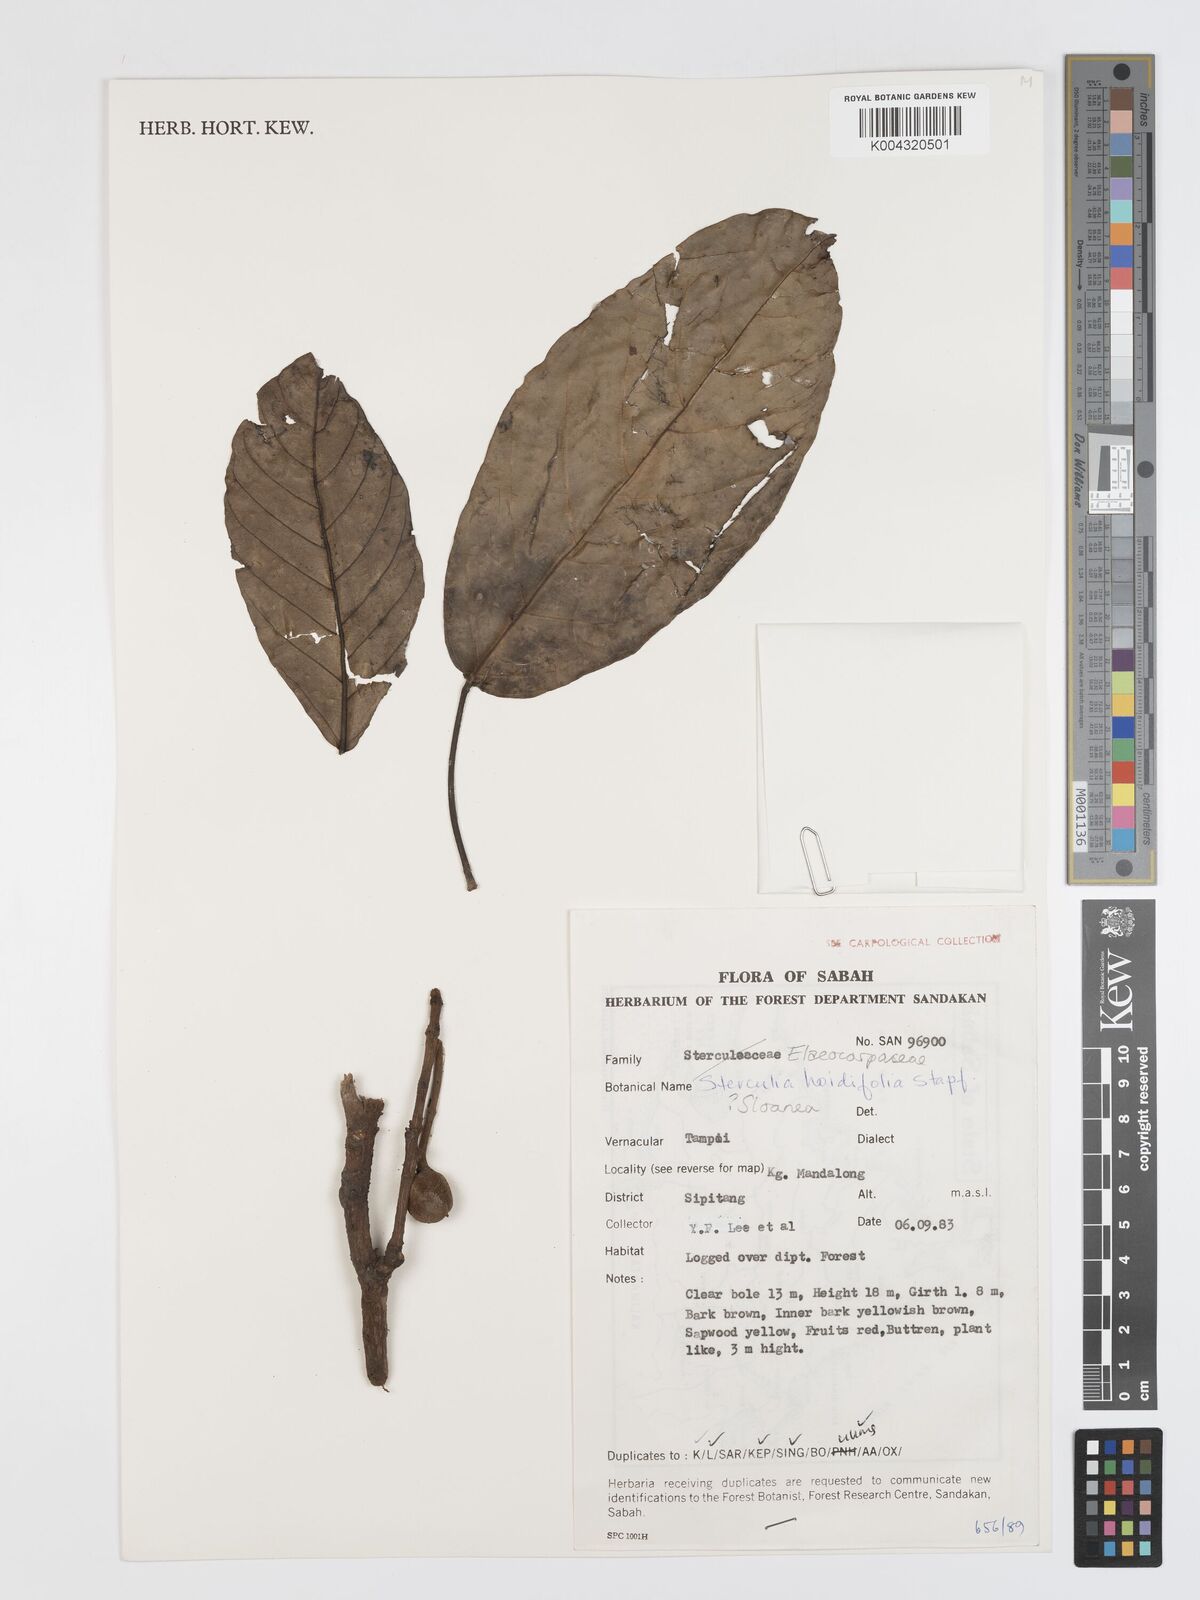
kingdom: Plantae
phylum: Tracheophyta
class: Magnoliopsida
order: Oxalidales
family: Elaeocarpaceae
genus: Sloanea
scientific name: Sloanea javanica
